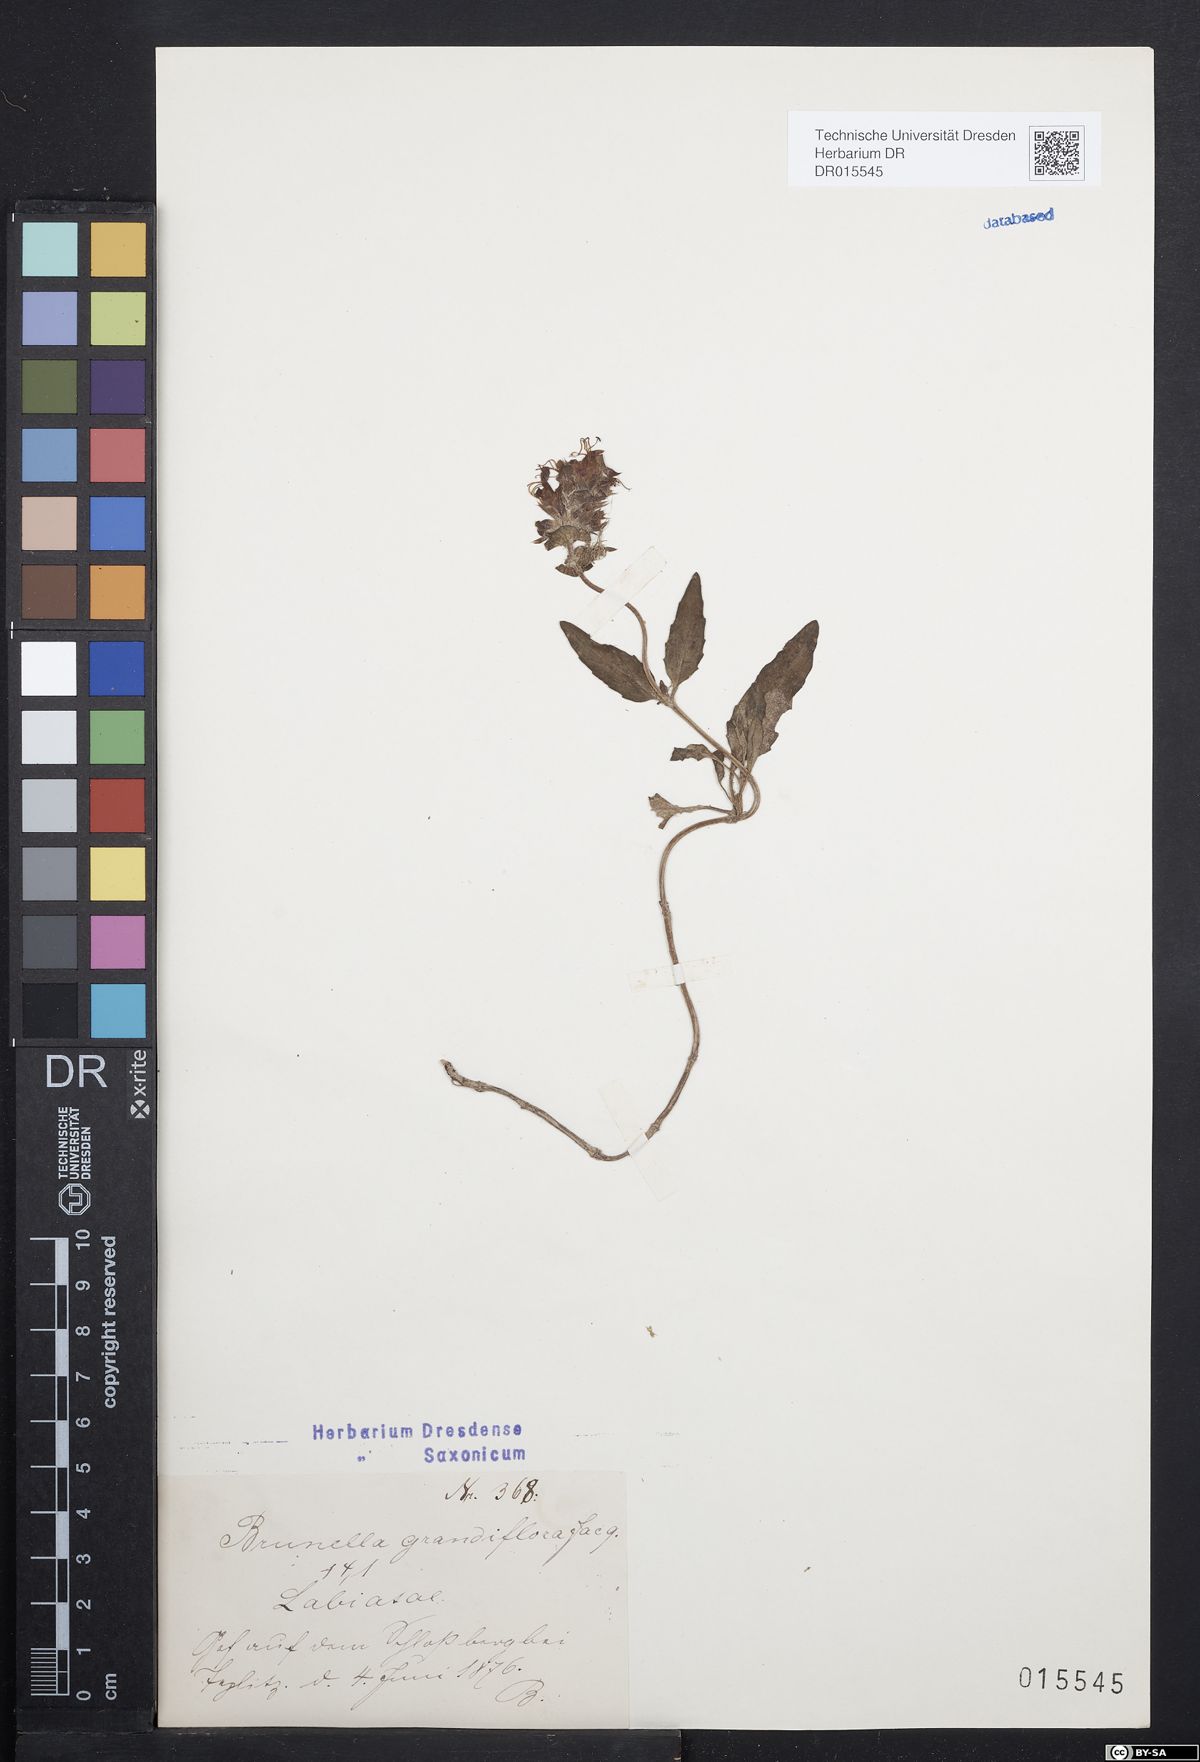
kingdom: Plantae
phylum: Tracheophyta
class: Magnoliopsida
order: Lamiales
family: Lamiaceae
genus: Prunella
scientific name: Prunella grandiflora
